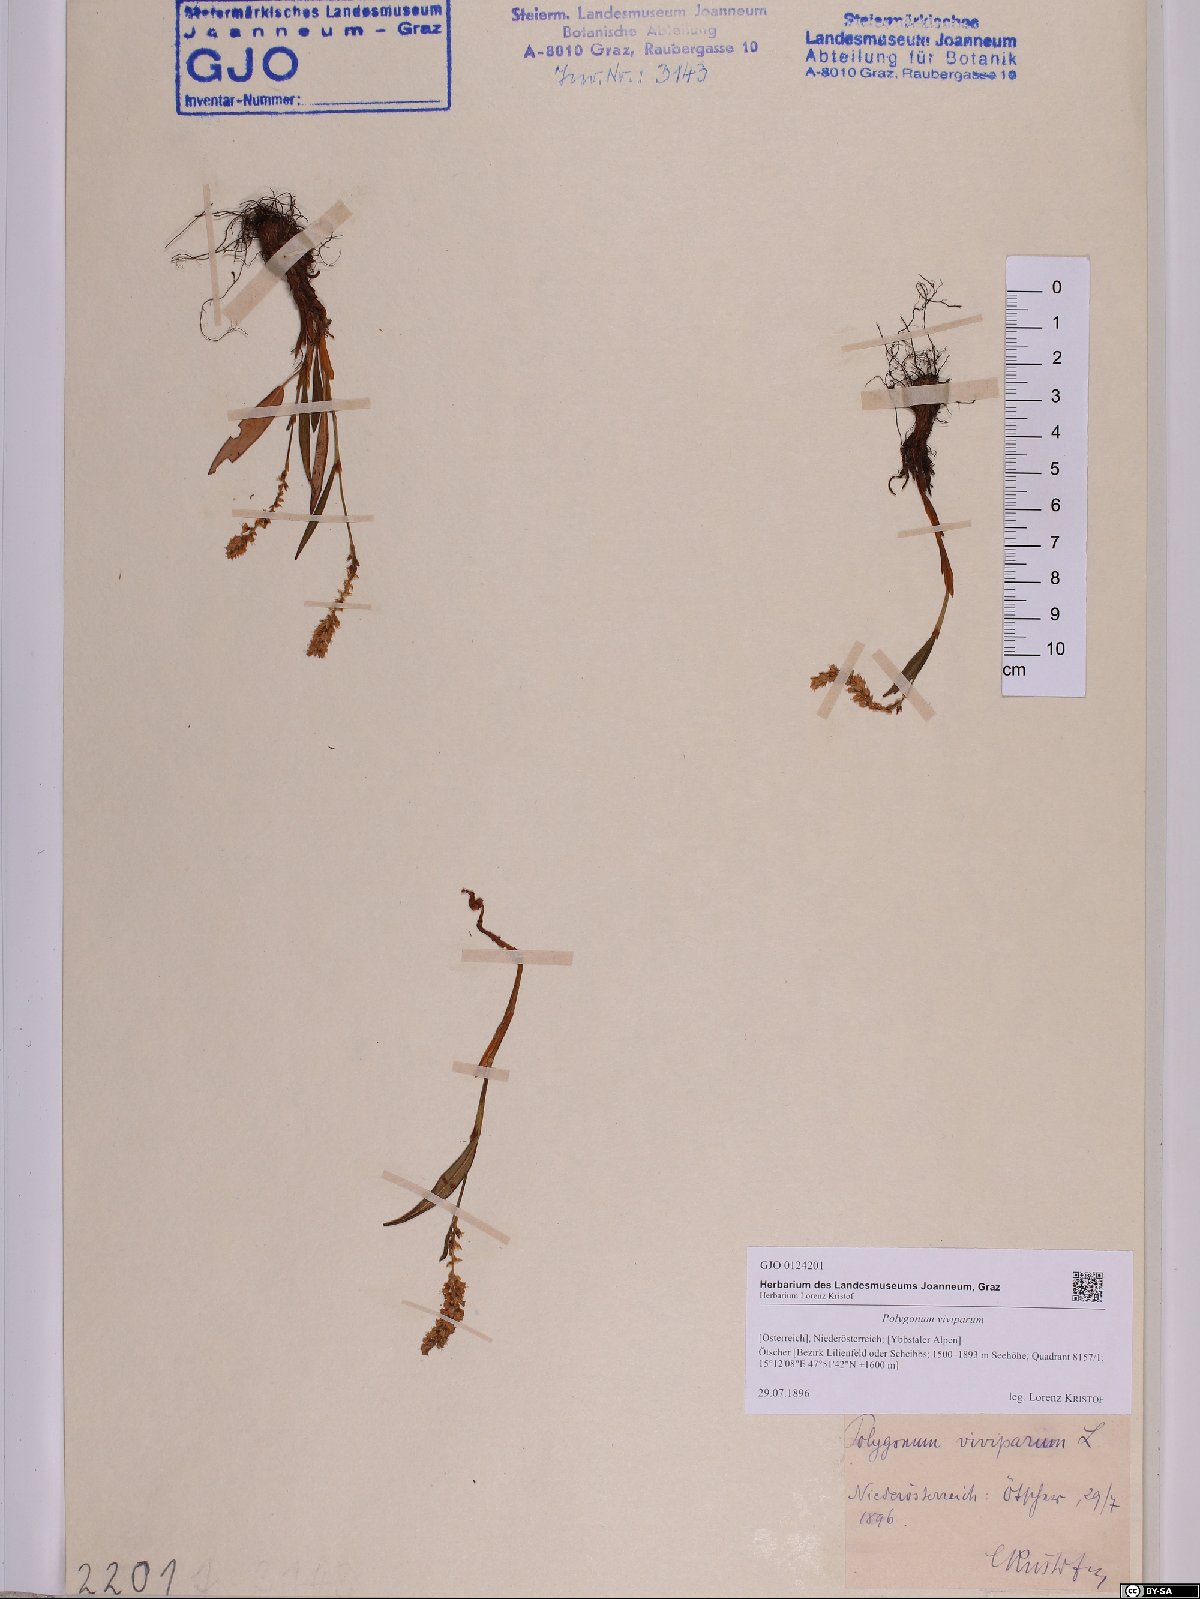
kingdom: Plantae
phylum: Tracheophyta
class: Magnoliopsida
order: Caryophyllales
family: Polygonaceae
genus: Bistorta
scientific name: Bistorta vivipara
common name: Alpine bistort
